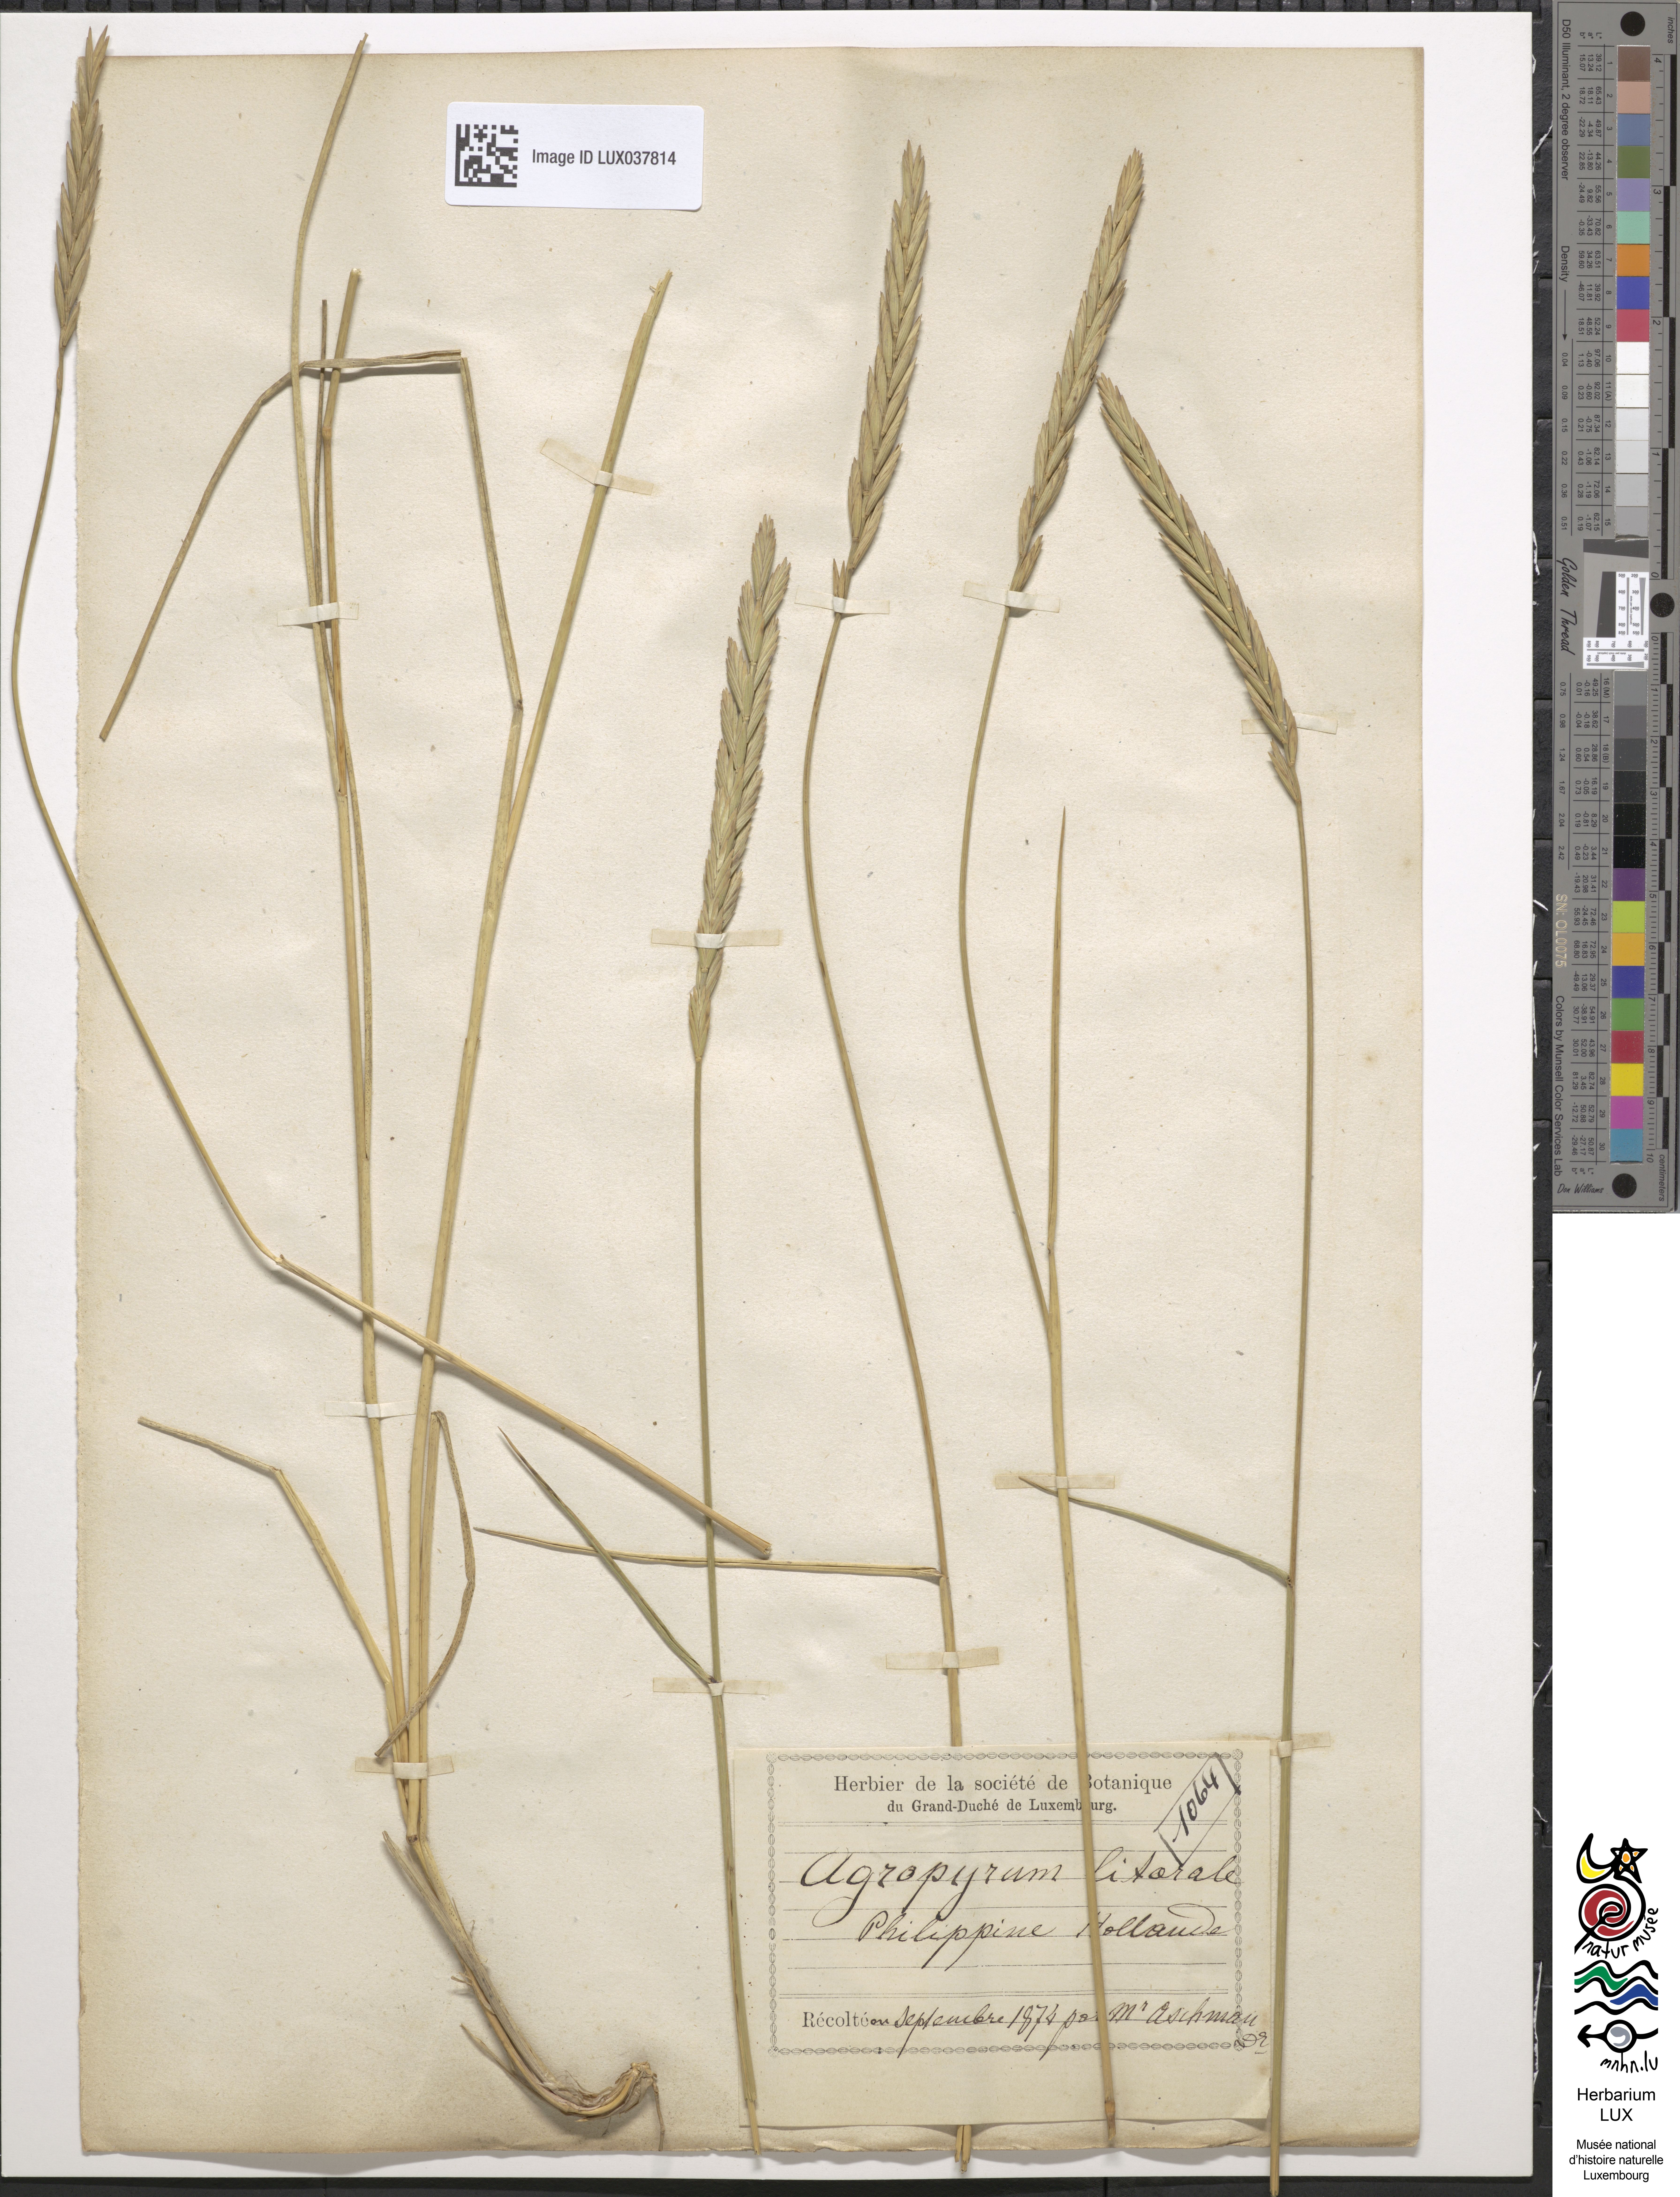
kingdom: Plantae
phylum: Tracheophyta
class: Liliopsida
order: Poales
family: Poaceae
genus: Thinopyrum
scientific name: Thinopyrum intermedium
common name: Intermediate wheatgrass
